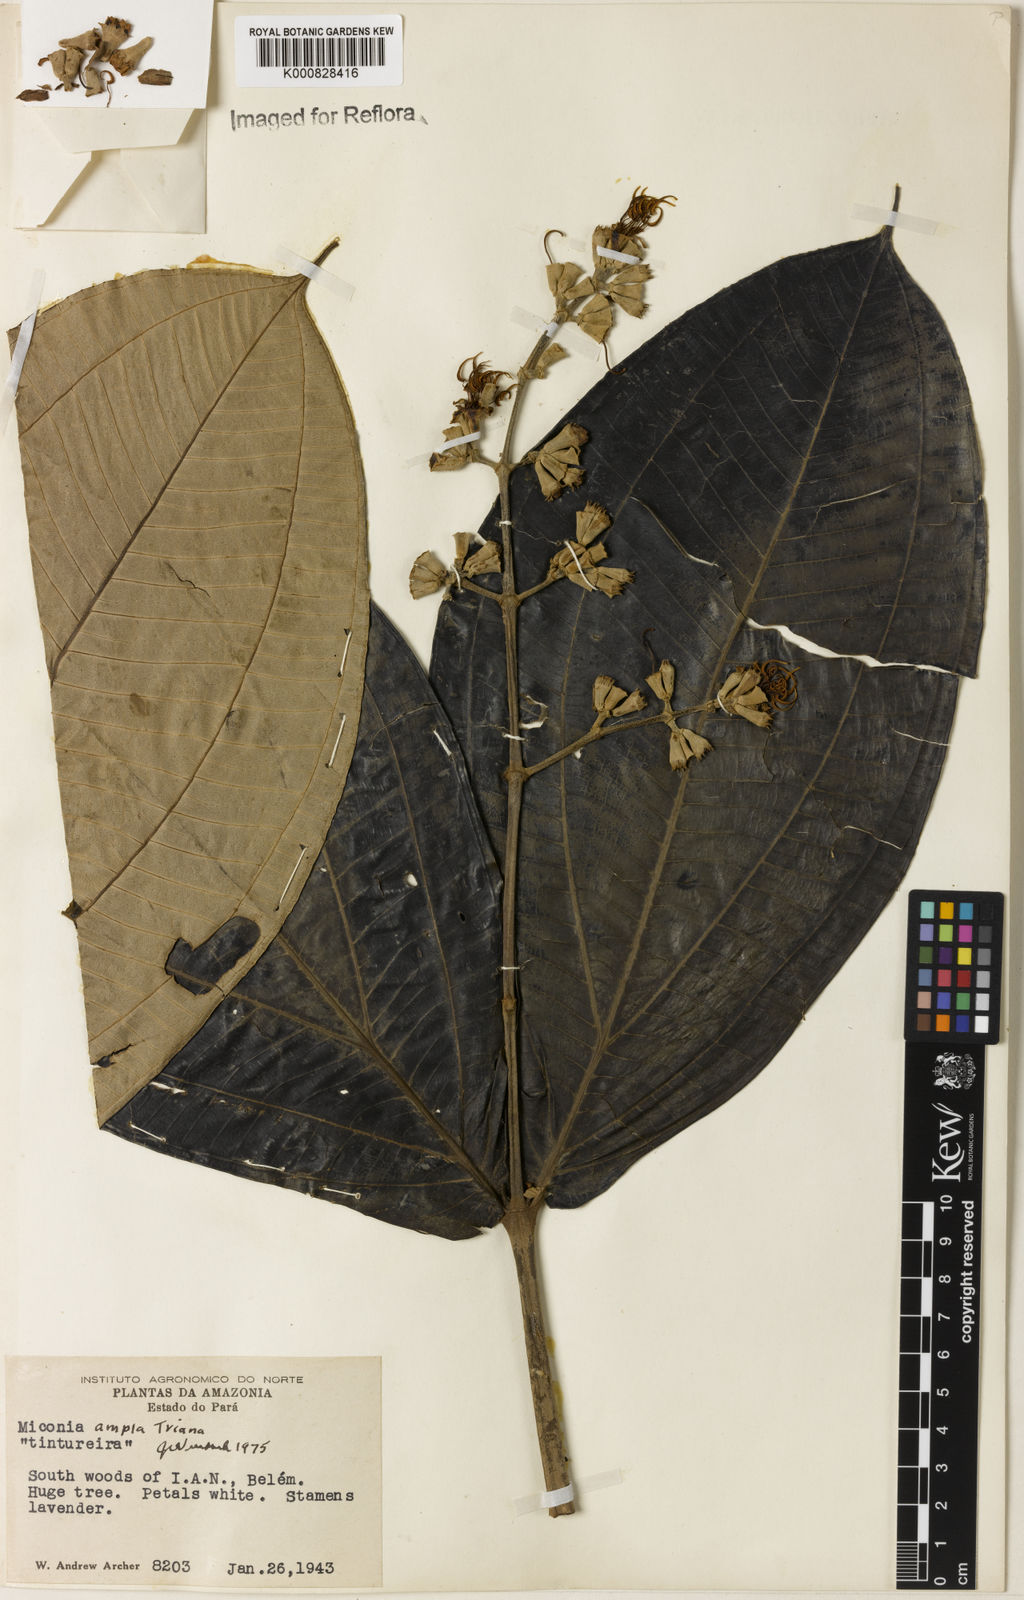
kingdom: Plantae
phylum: Tracheophyta
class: Magnoliopsida
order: Myrtales
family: Melastomataceae
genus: Miconia
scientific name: Miconia ampla
